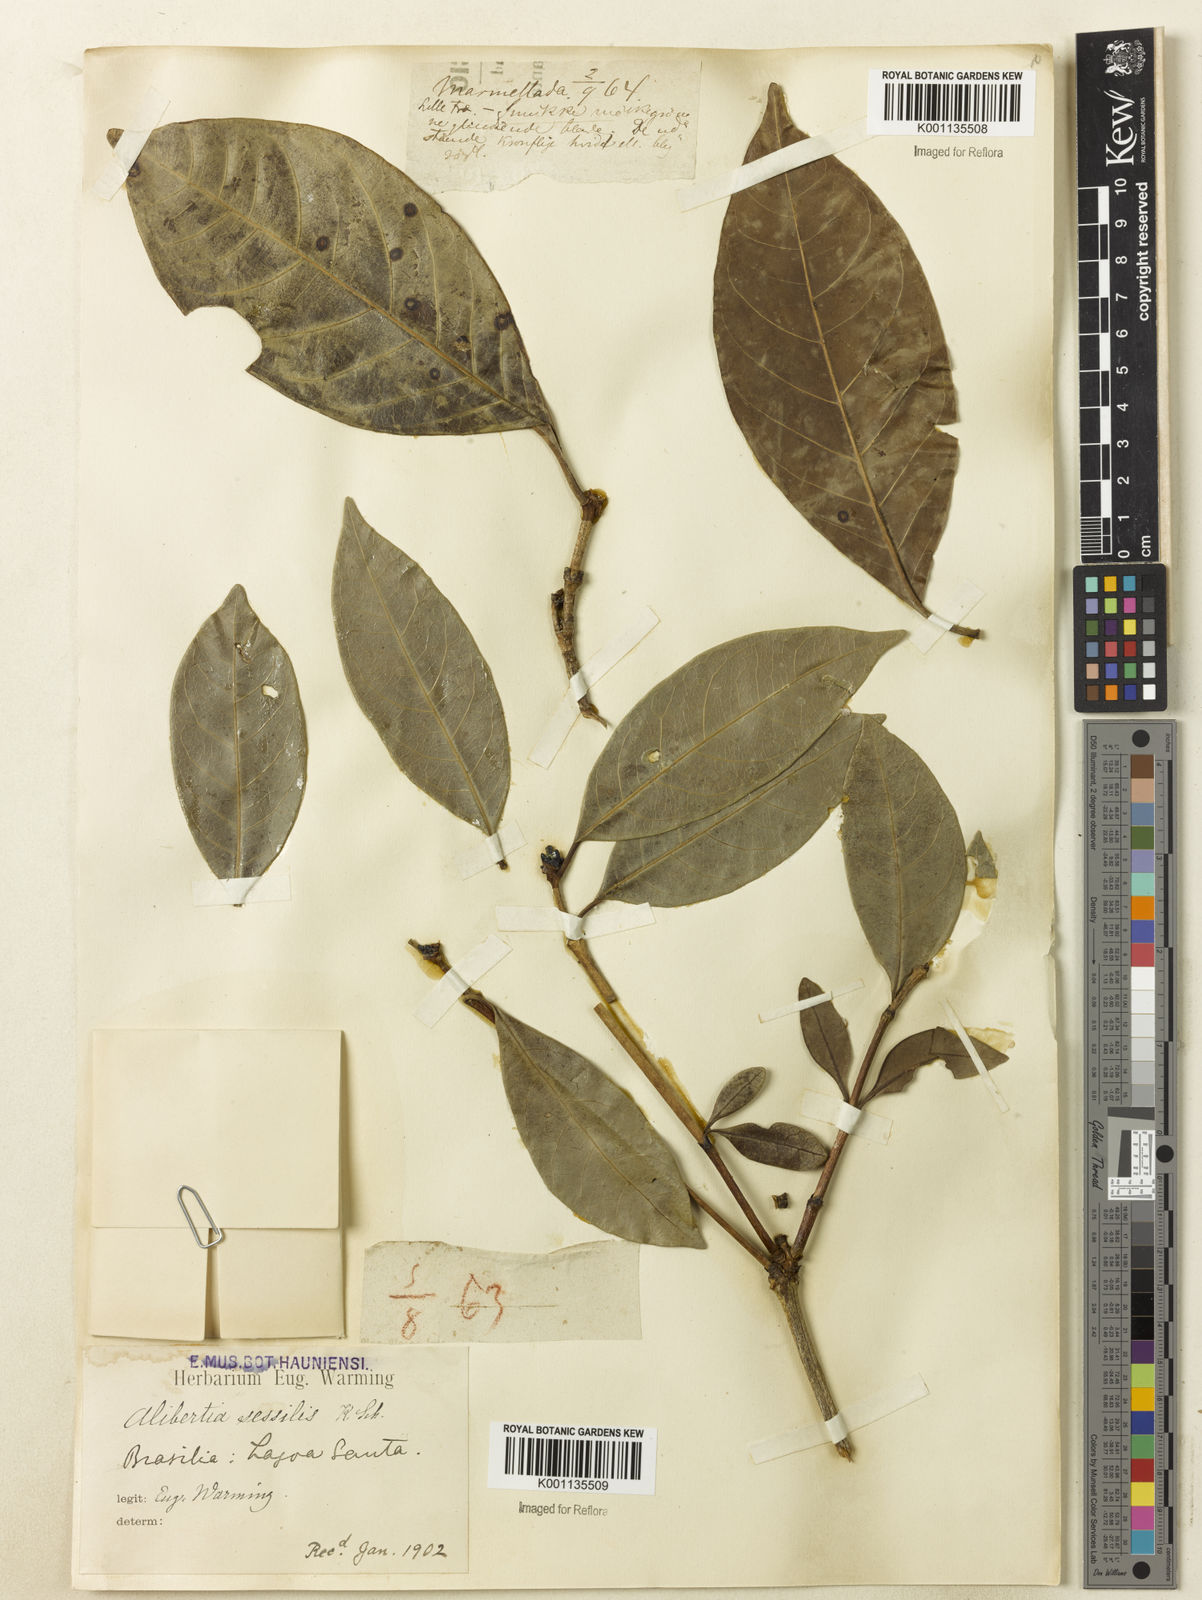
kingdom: Plantae
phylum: Tracheophyta
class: Magnoliopsida
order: Gentianales
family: Rubiaceae
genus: Cordiera
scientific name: Cordiera sessilis
